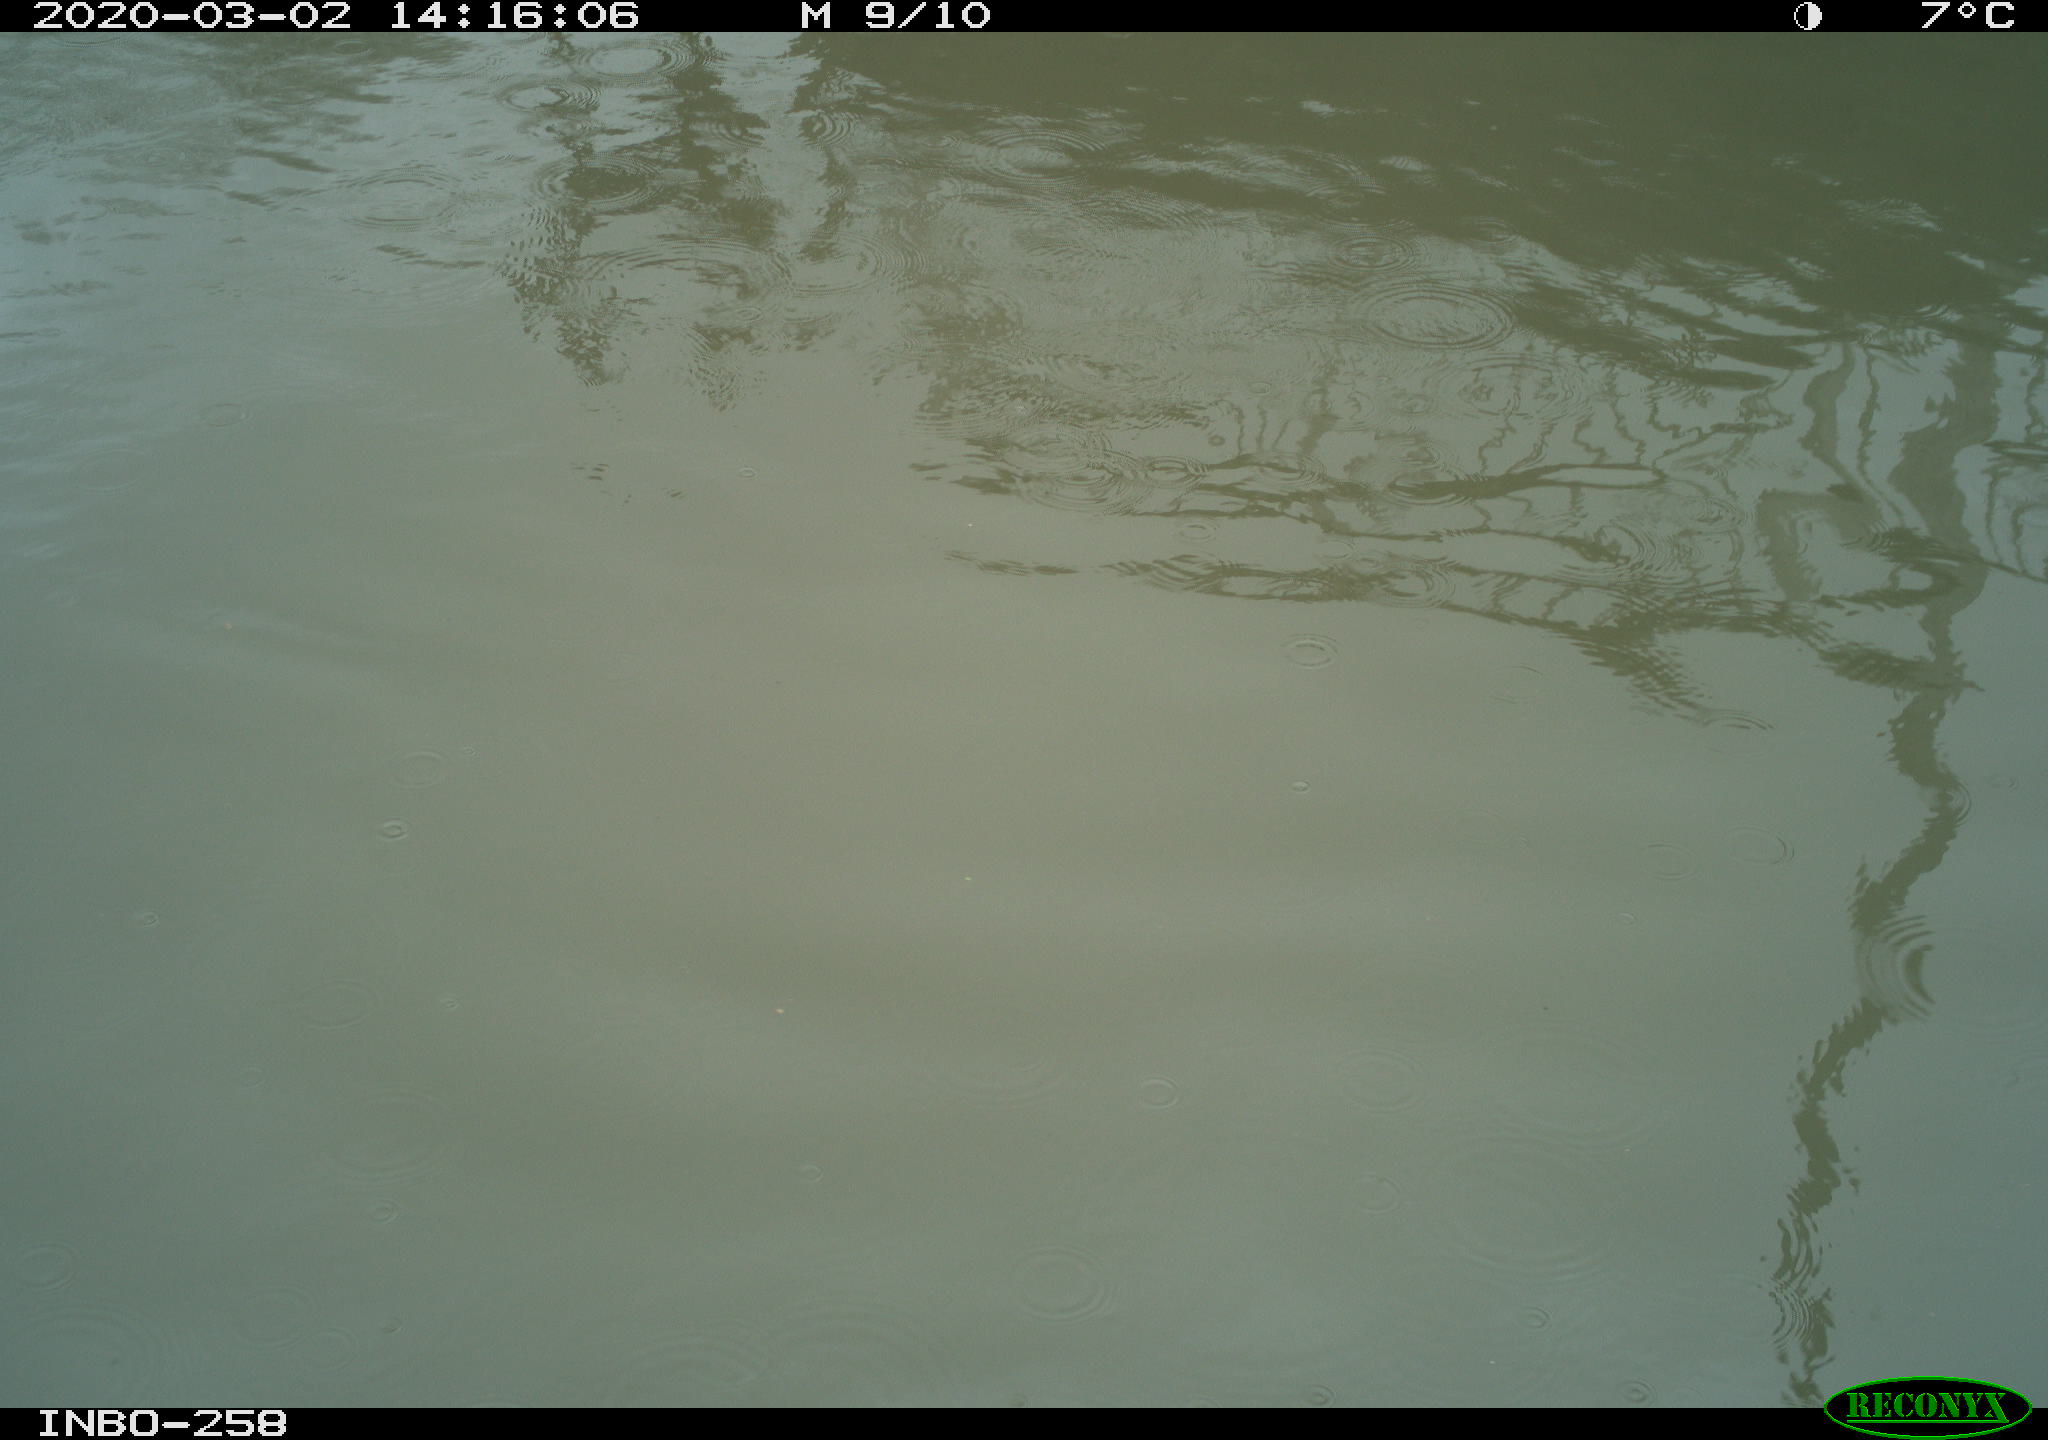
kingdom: Animalia
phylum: Chordata
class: Aves
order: Anseriformes
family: Anatidae
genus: Anas
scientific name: Anas platyrhynchos
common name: Mallard
